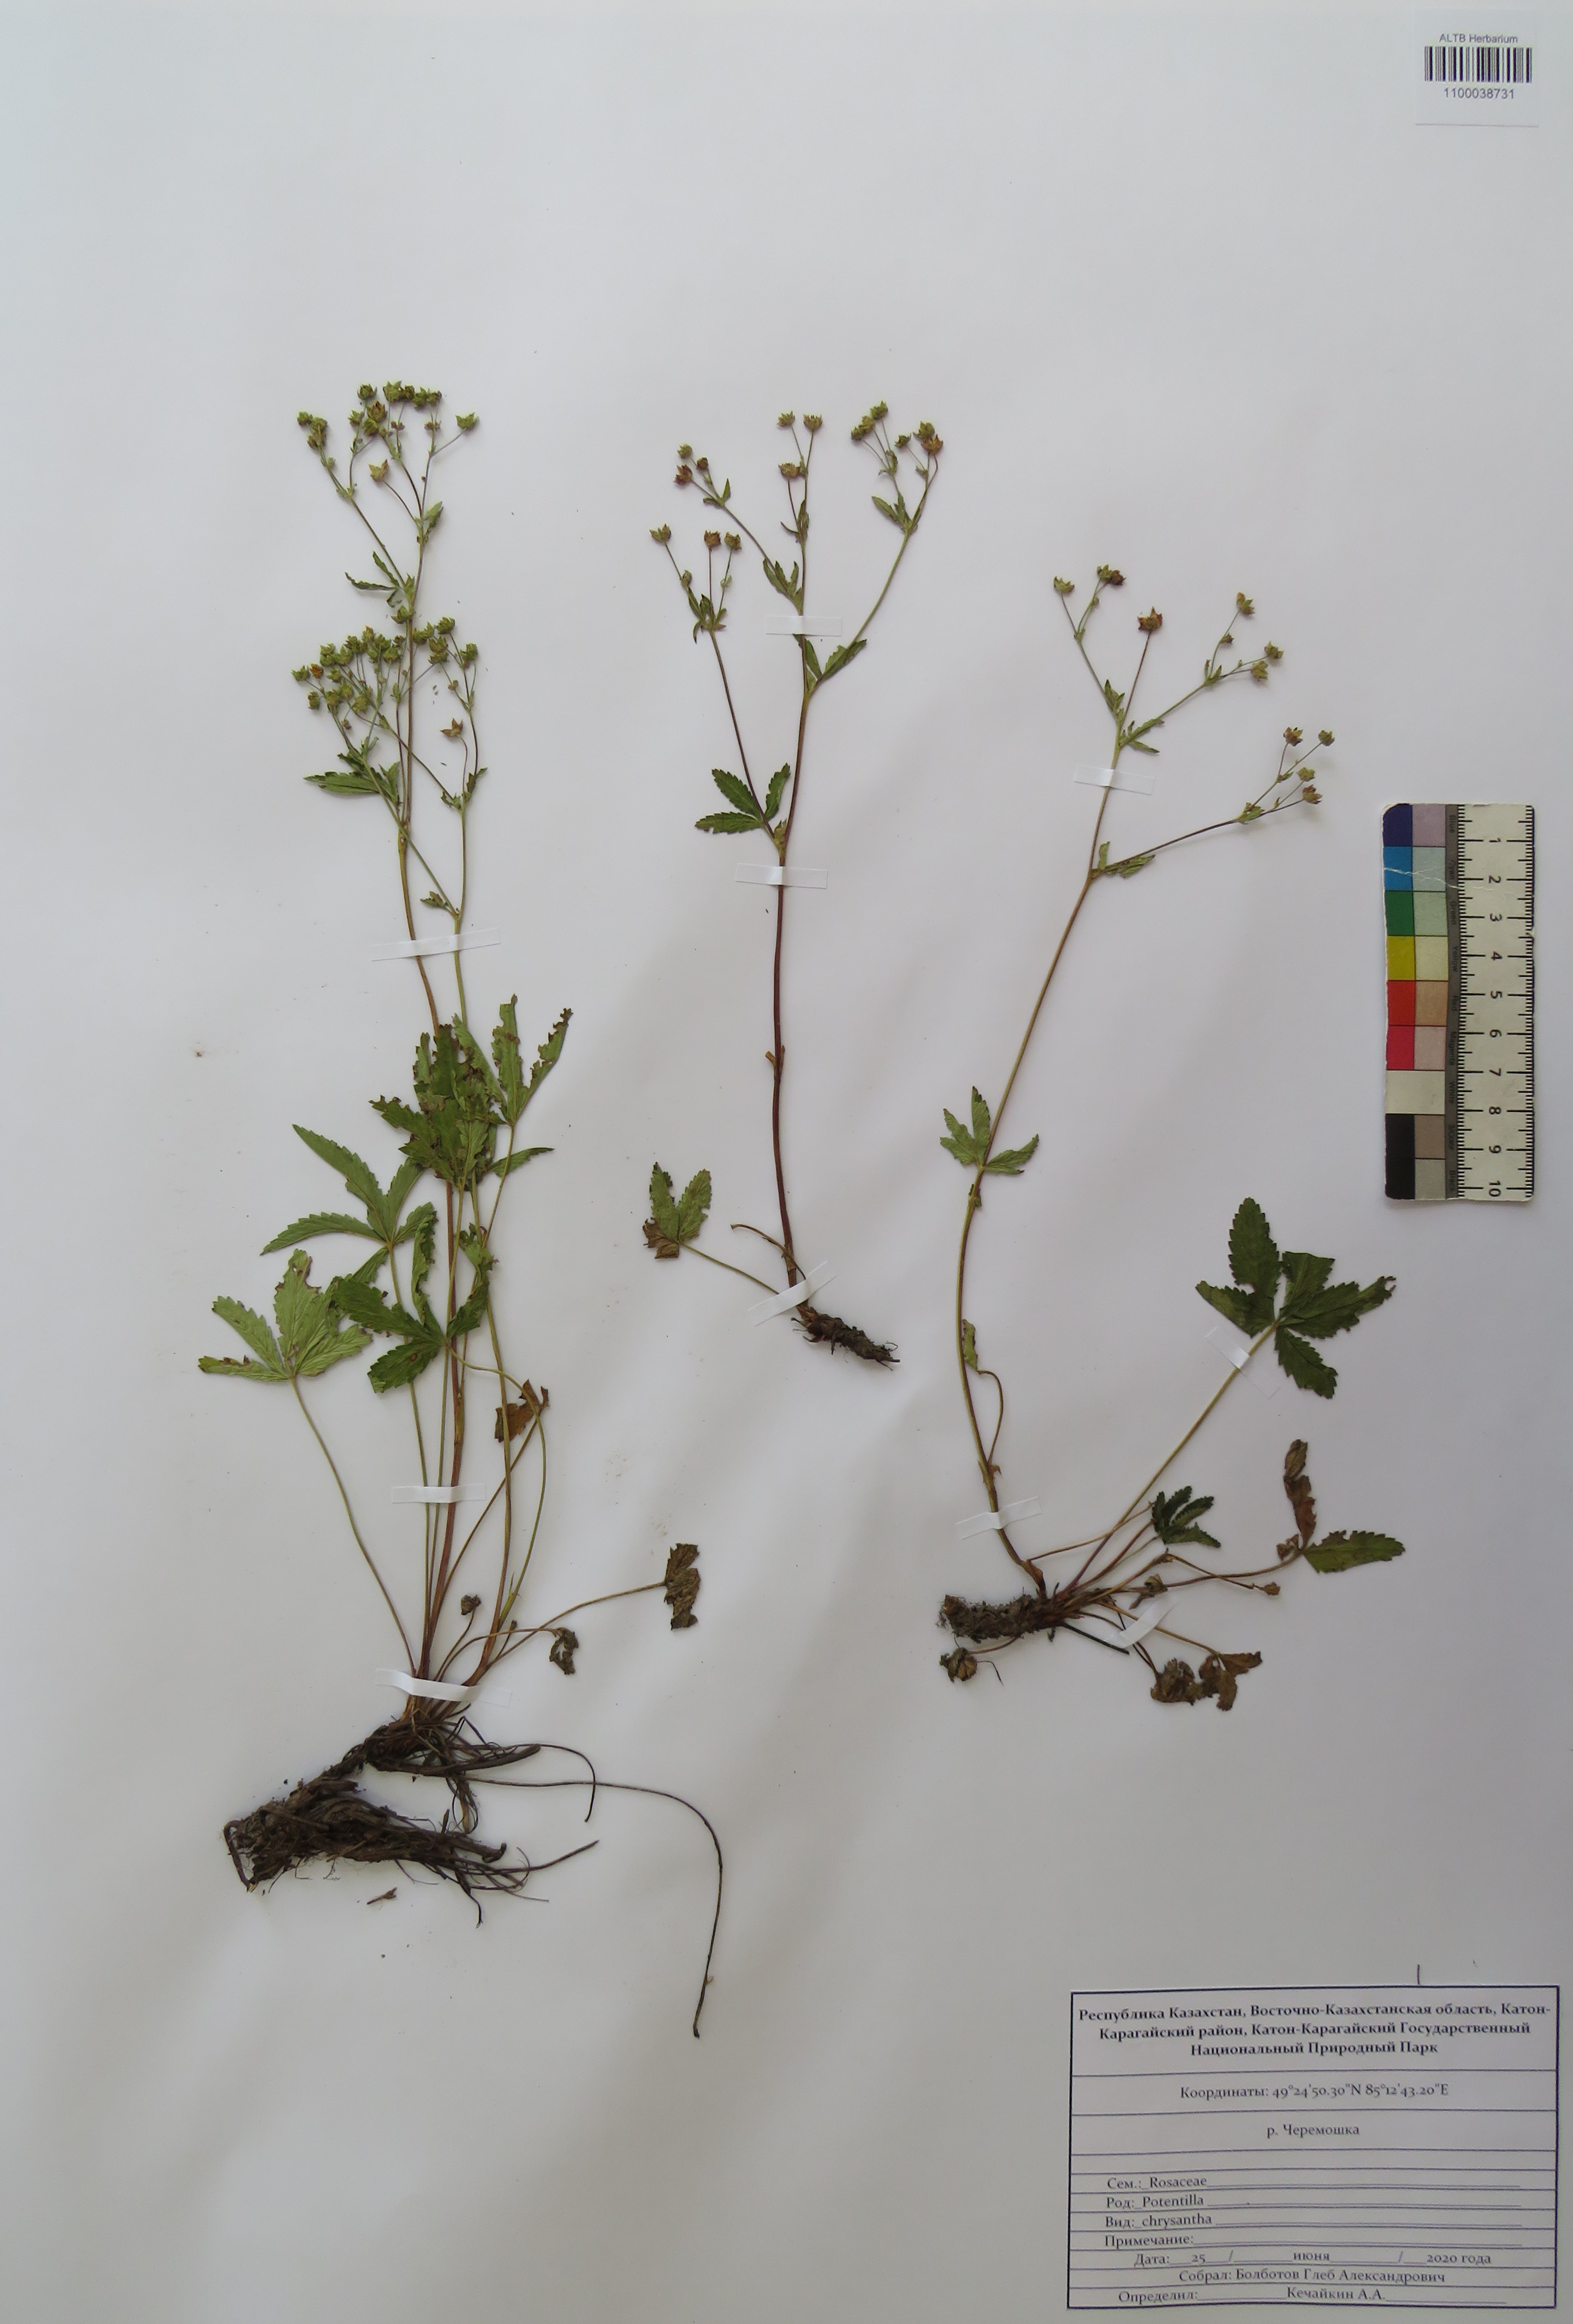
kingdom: Plantae
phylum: Tracheophyta
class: Magnoliopsida
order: Rosales
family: Rosaceae
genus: Potentilla
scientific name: Potentilla chrysantha
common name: Thuringian cinquefoil
